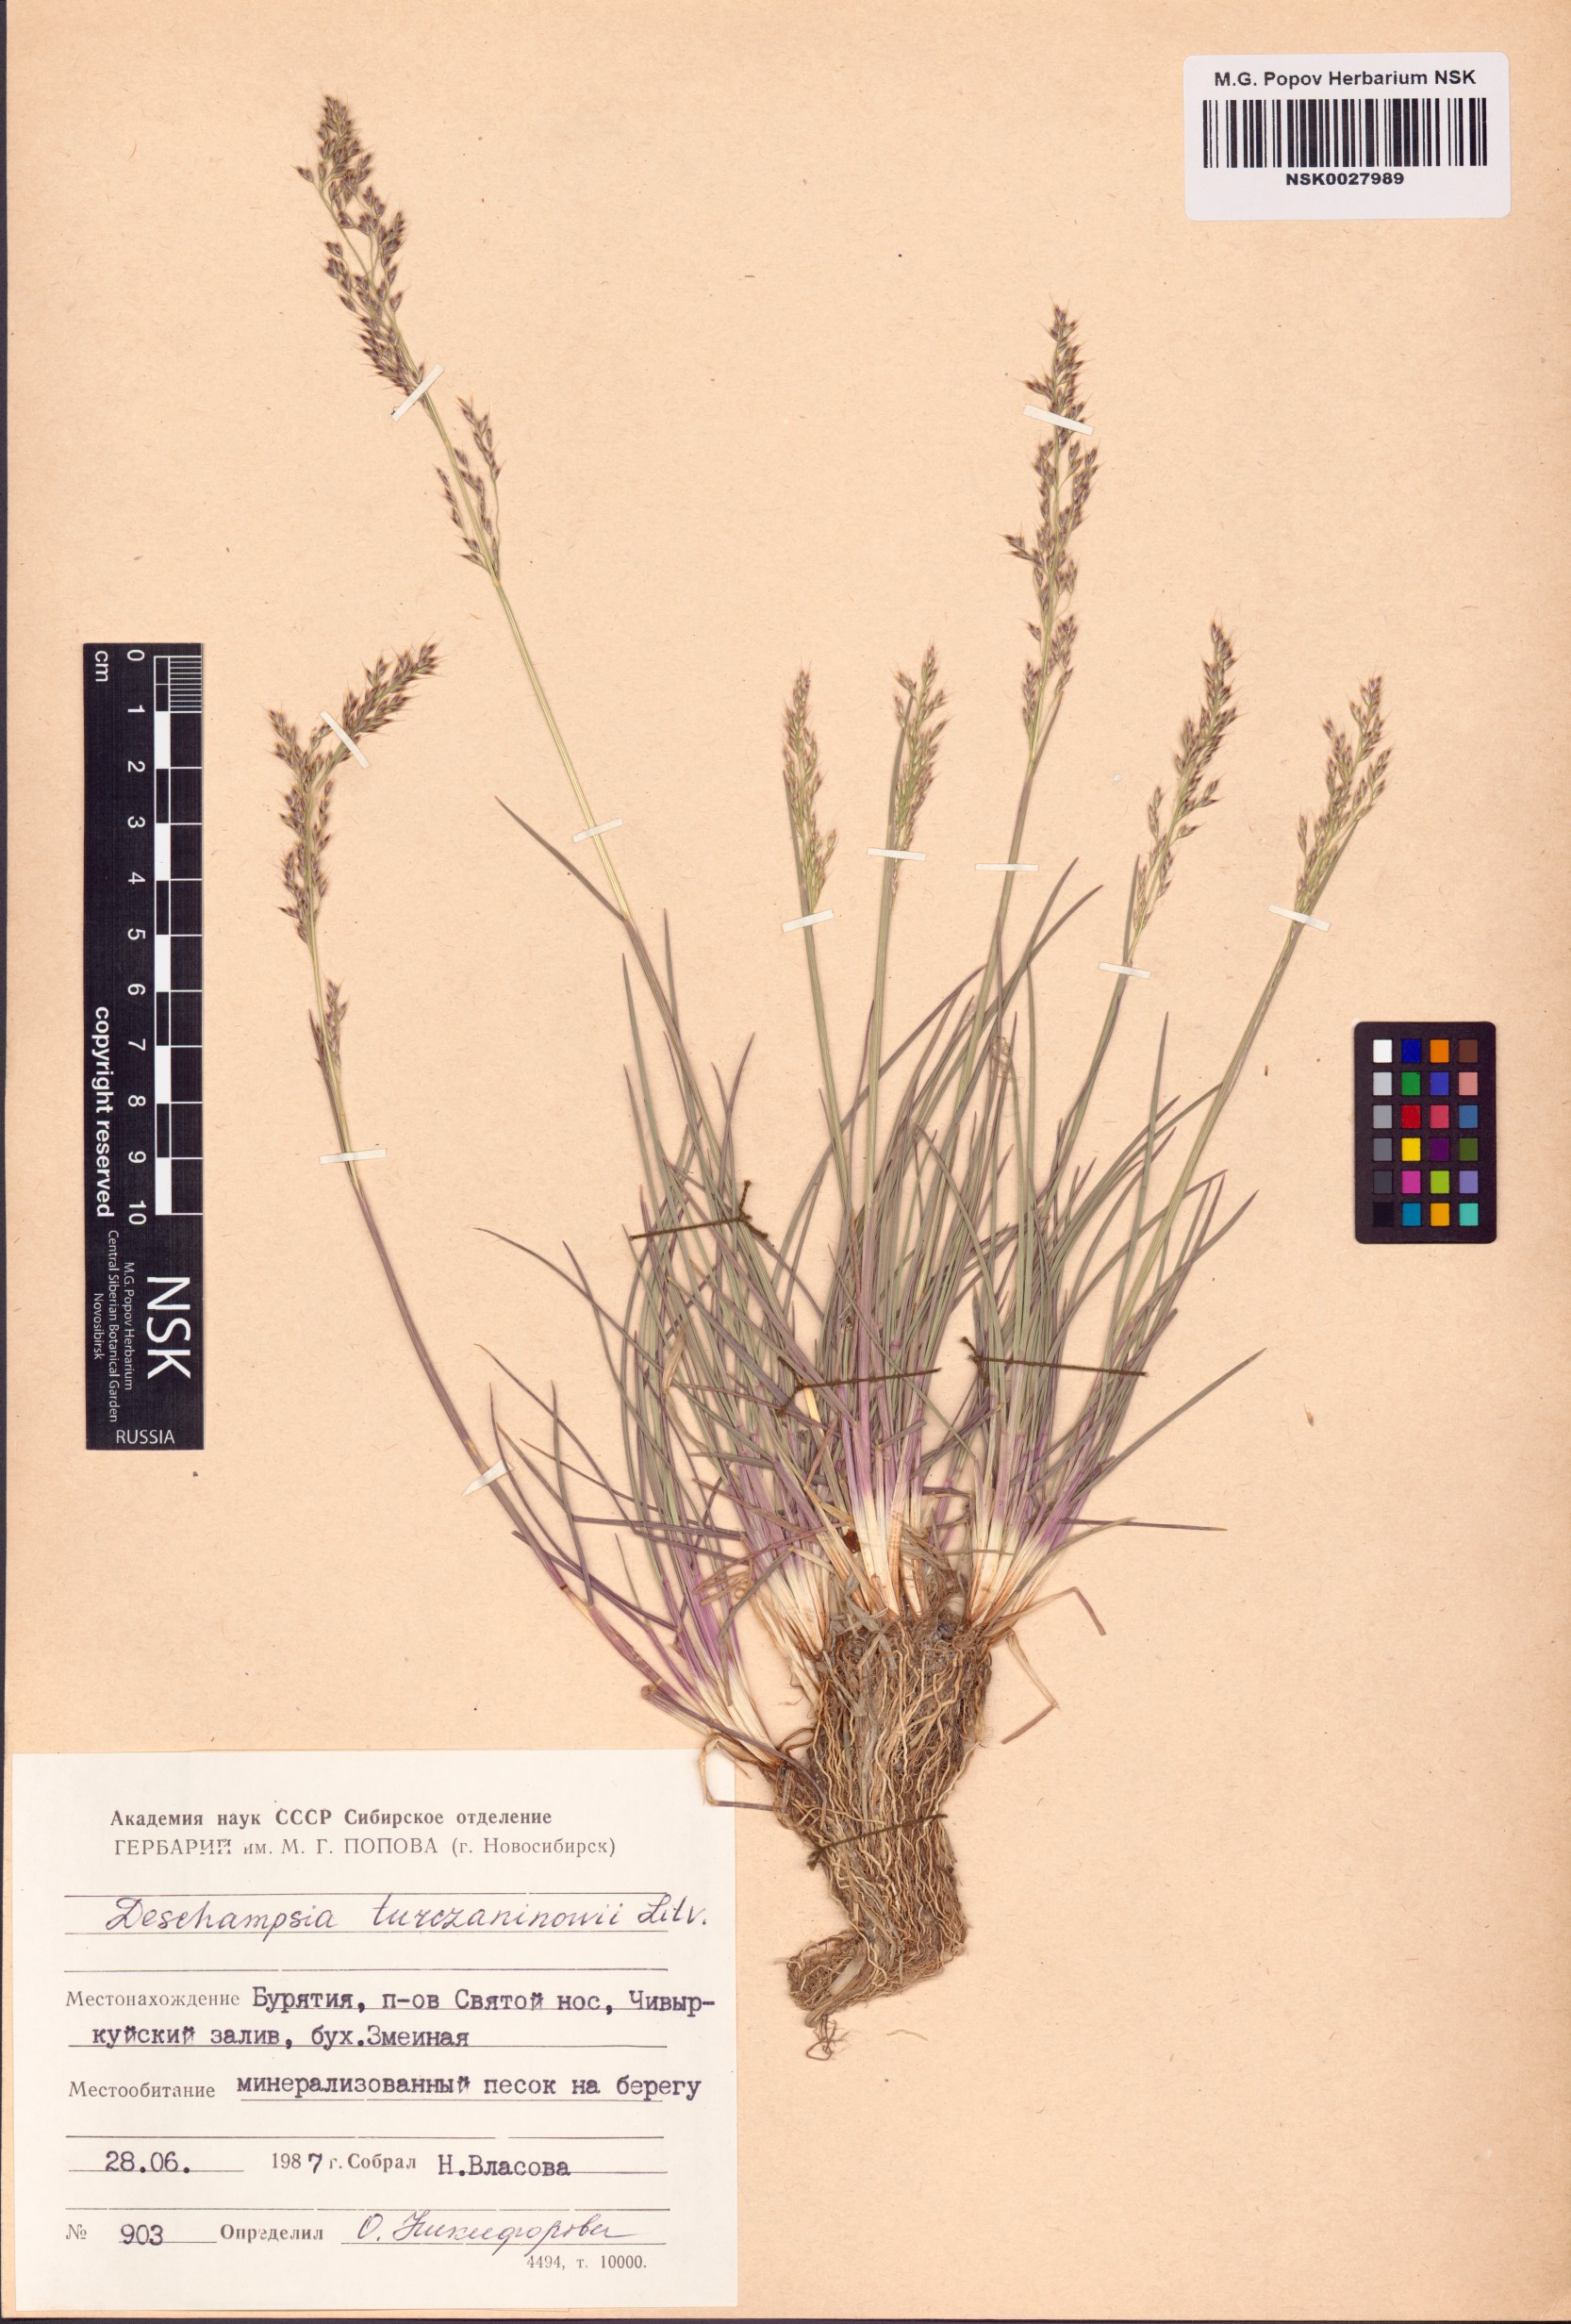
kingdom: Plantae
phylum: Tracheophyta
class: Liliopsida
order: Poales
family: Poaceae
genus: Deschampsia
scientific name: Deschampsia cespitosa
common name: Tufted hair-grass
